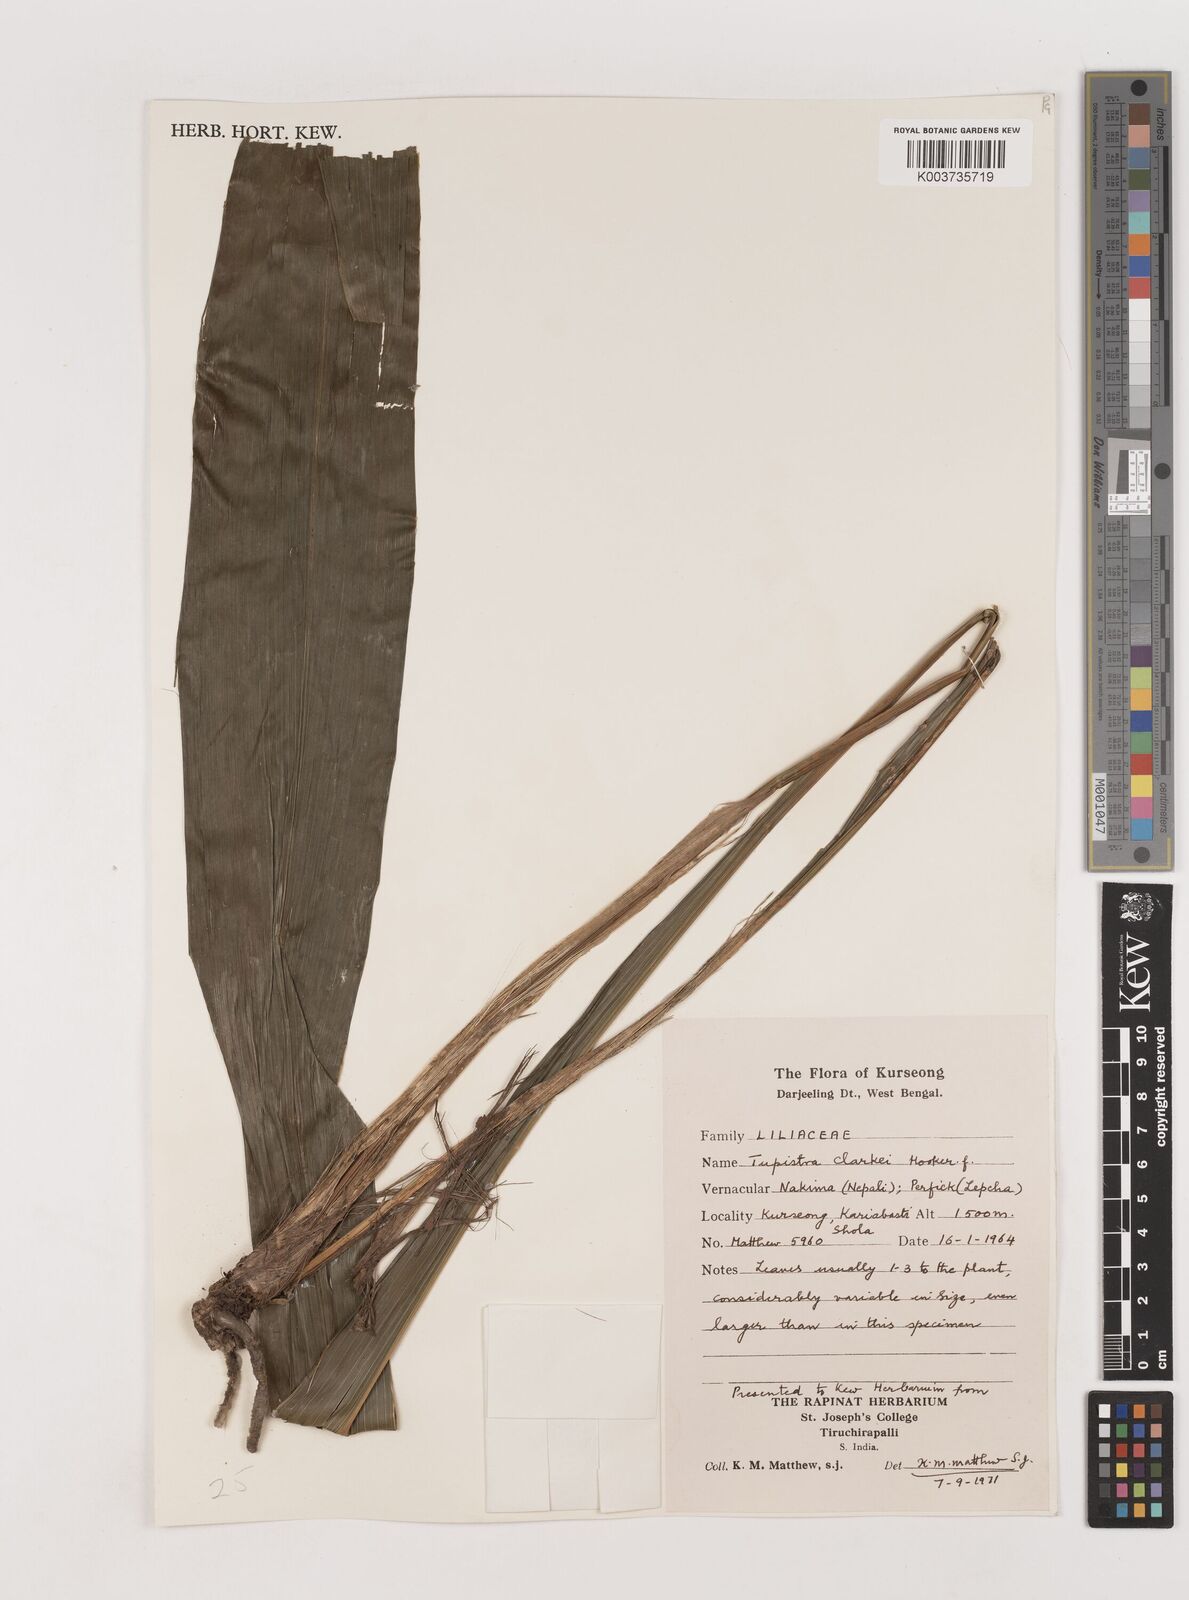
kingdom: Plantae
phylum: Tracheophyta
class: Liliopsida
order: Asparagales
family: Asparagaceae
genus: Tupistra
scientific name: Tupistra clarkei
